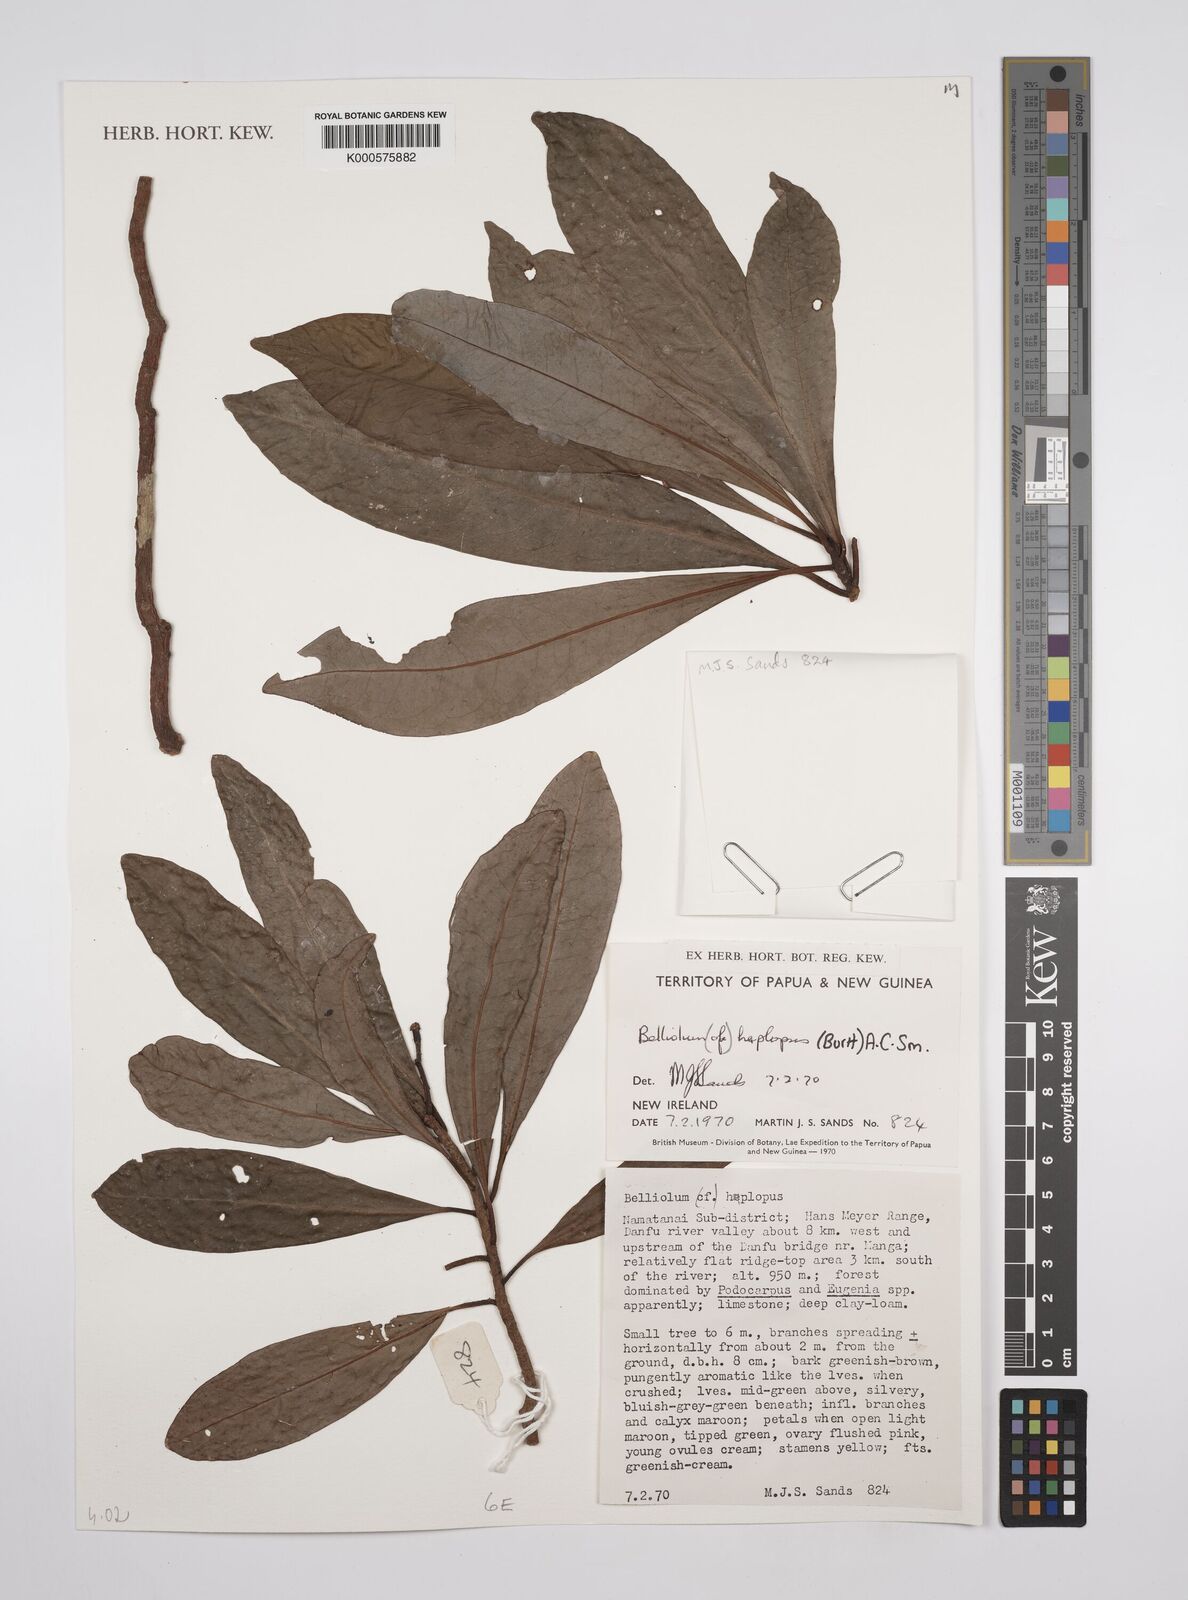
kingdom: Plantae
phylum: Tracheophyta
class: Magnoliopsida
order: Canellales
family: Winteraceae
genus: Zygogynum
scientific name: Zygogynum haplopus
